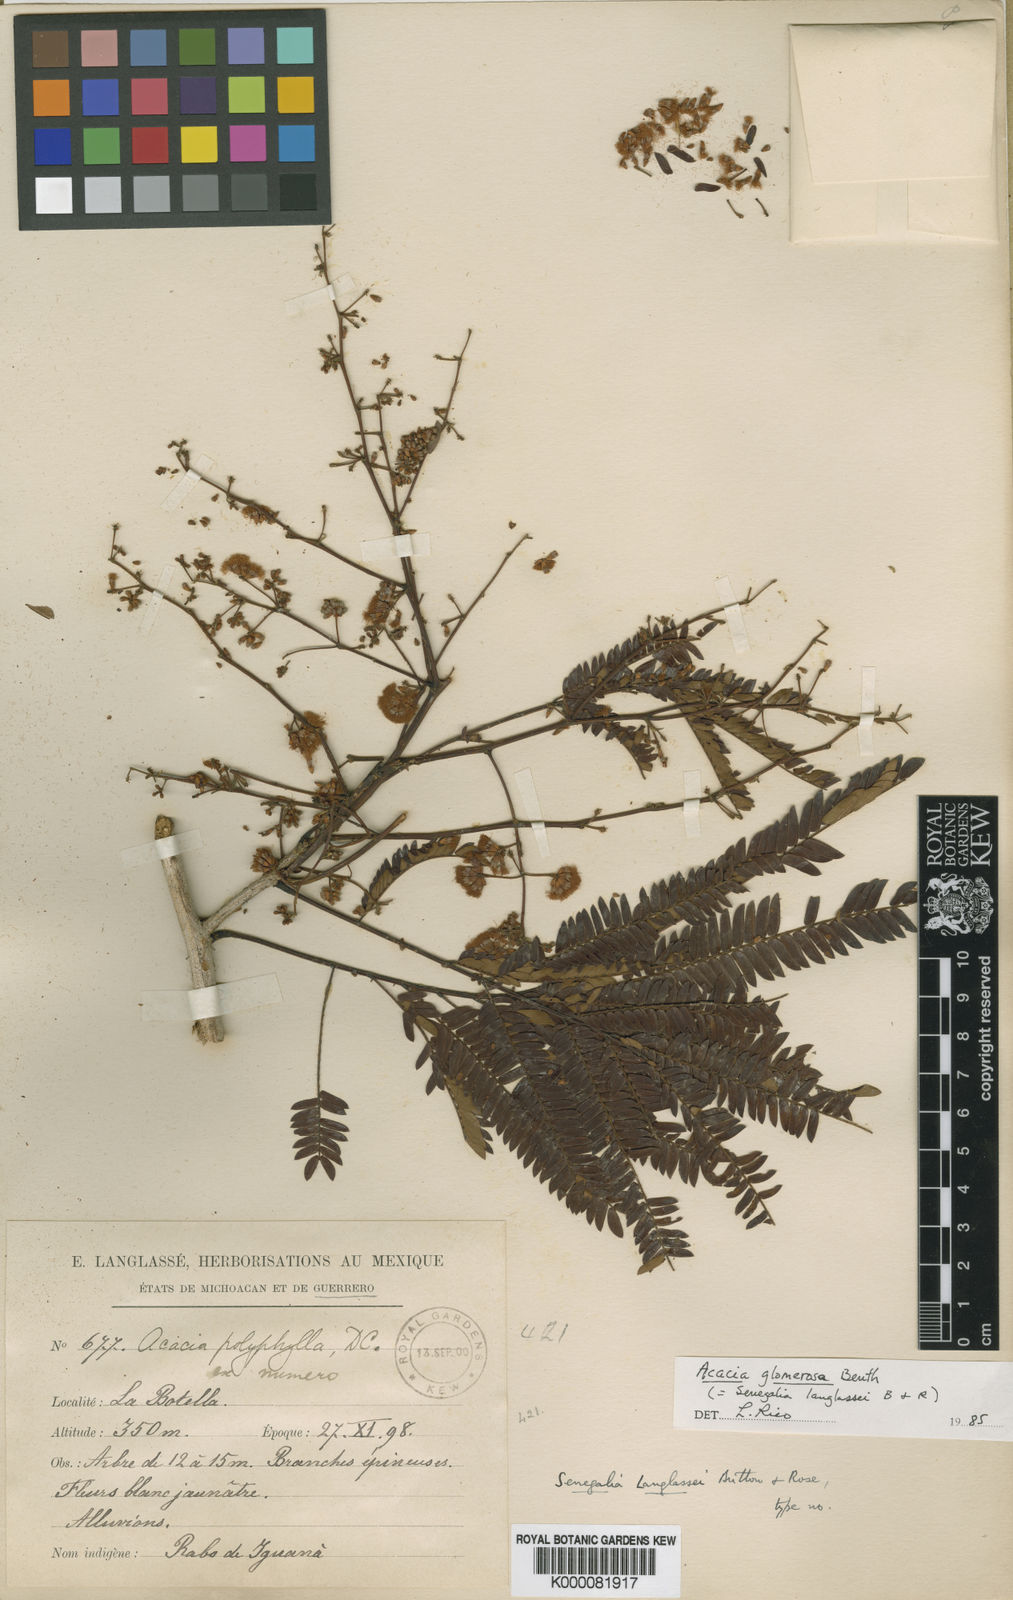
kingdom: Plantae
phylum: Tracheophyta
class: Magnoliopsida
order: Fabales
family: Fabaceae
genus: Senegalia
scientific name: Senegalia polyphylla
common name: White-tamarind
